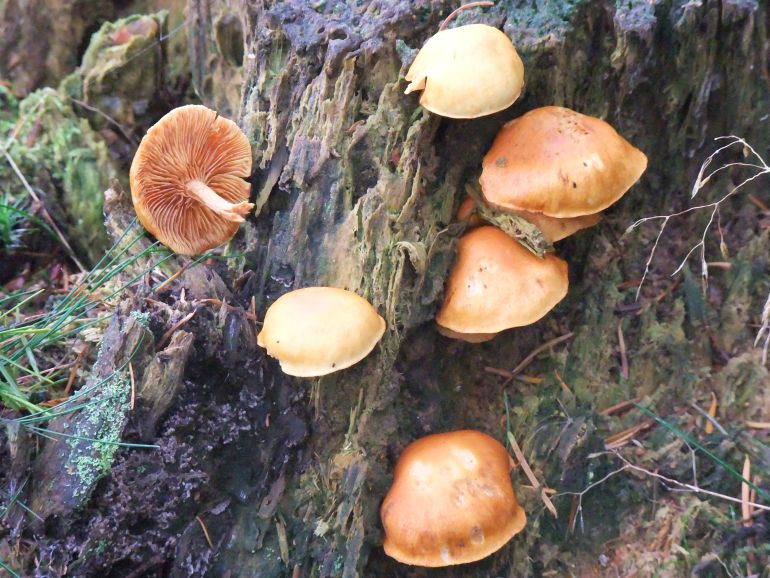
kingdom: Fungi
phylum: Basidiomycota
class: Agaricomycetes
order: Agaricales
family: Hymenogastraceae
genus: Gymnopilus
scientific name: Gymnopilus penetrans
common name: plettet flammehat
